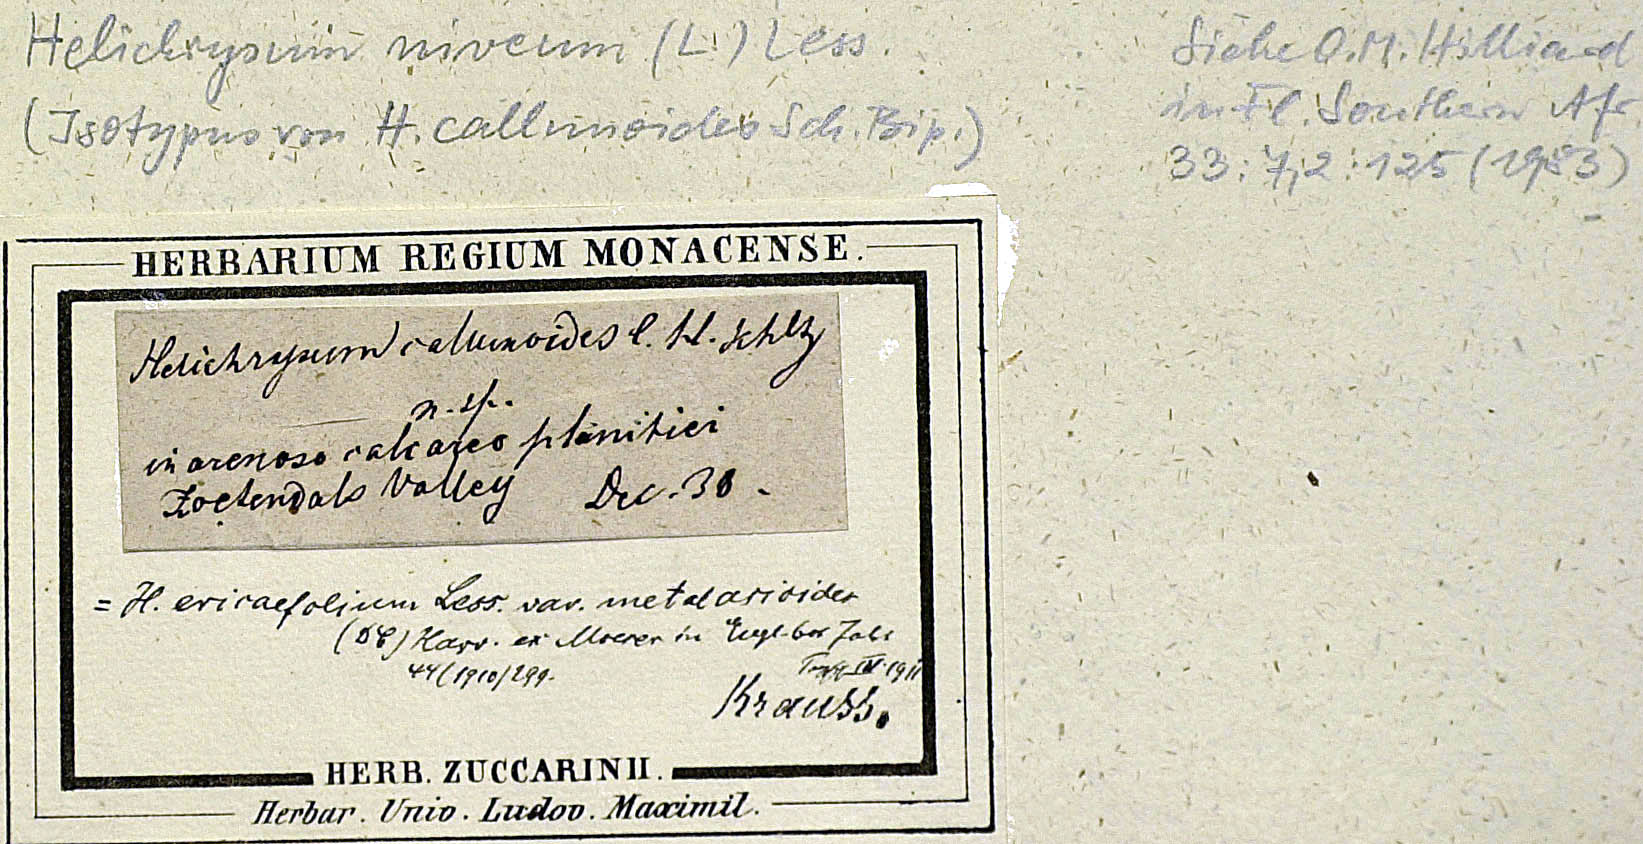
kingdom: Plantae
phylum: Tracheophyta
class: Magnoliopsida
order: Asterales
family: Asteraceae
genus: Helichrysum
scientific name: Helichrysum niveum
